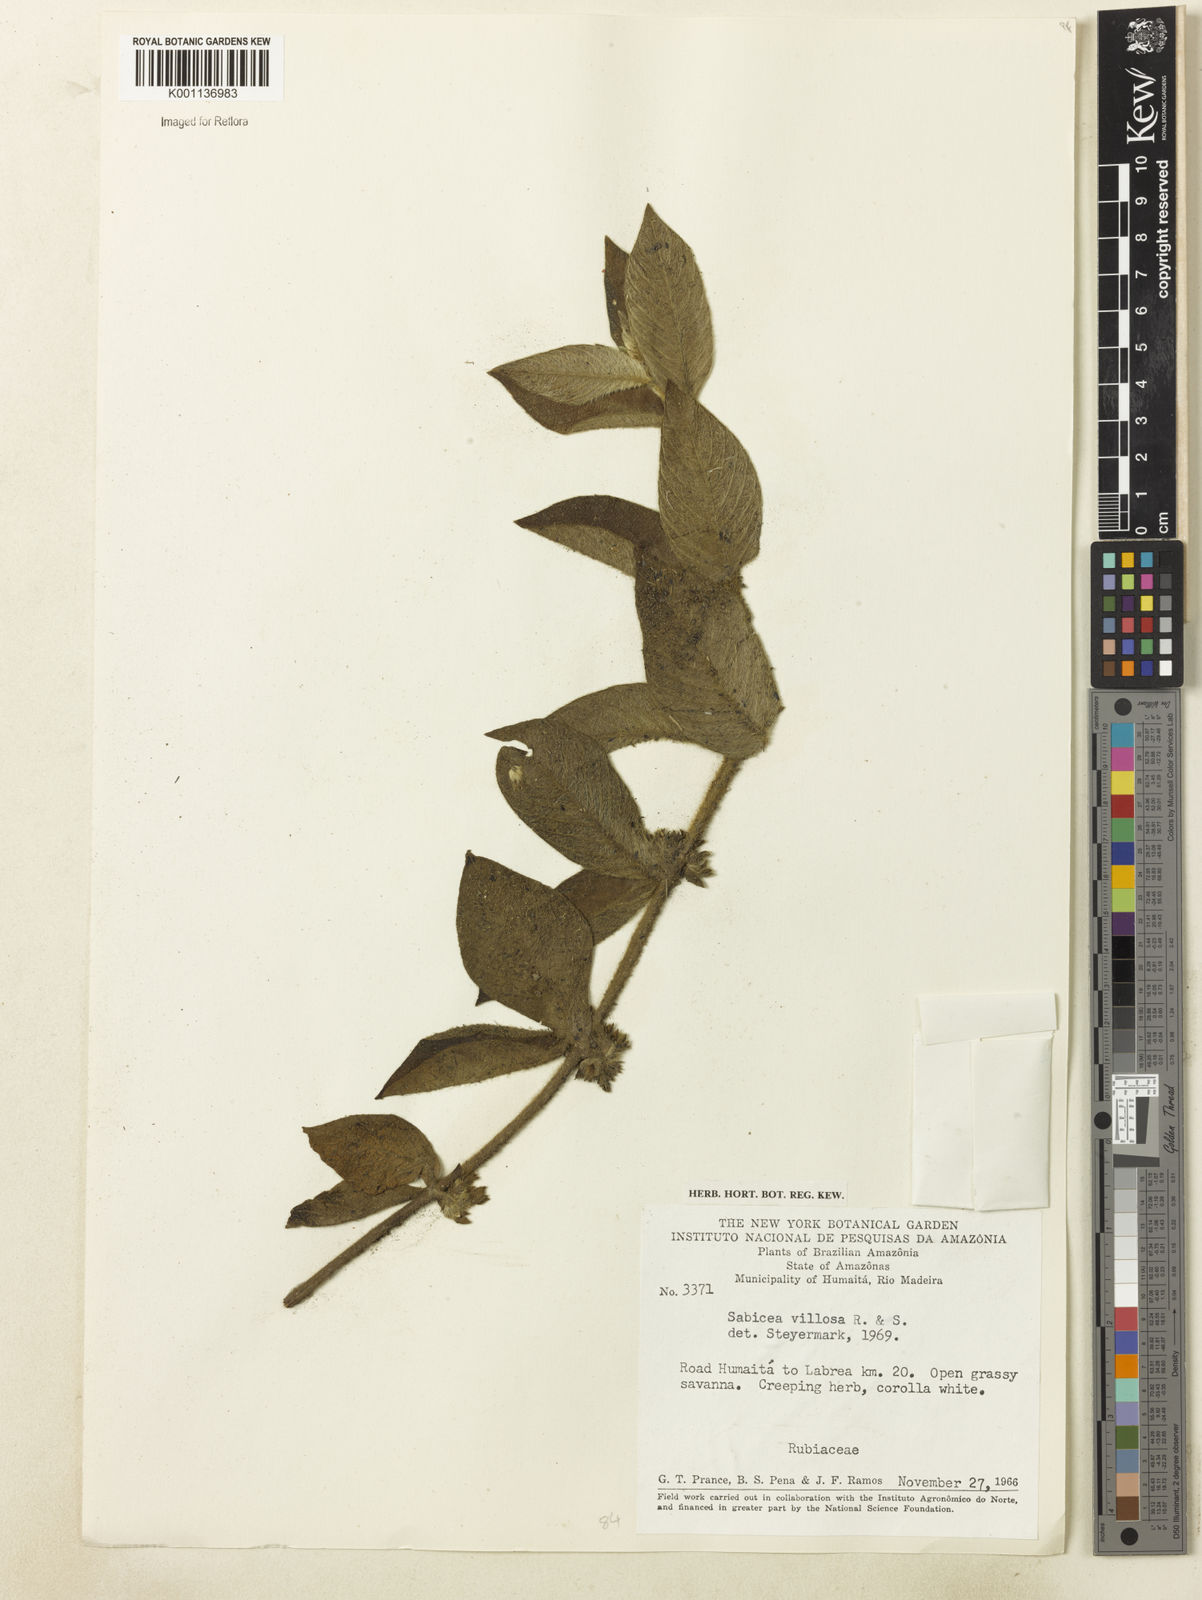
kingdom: Plantae
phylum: Tracheophyta
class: Magnoliopsida
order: Gentianales
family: Rubiaceae
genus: Sabicea
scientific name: Sabicea villosa
